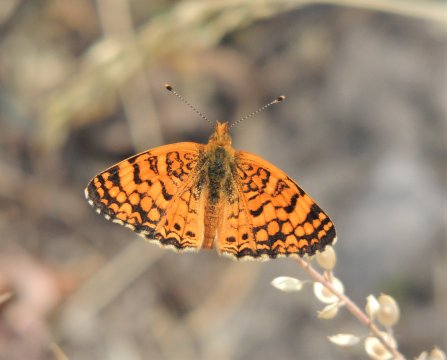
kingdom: Animalia
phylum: Arthropoda
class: Insecta
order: Lepidoptera
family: Nymphalidae
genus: Eresia
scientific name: Eresia aveyrona
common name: Mylitta Crescent
